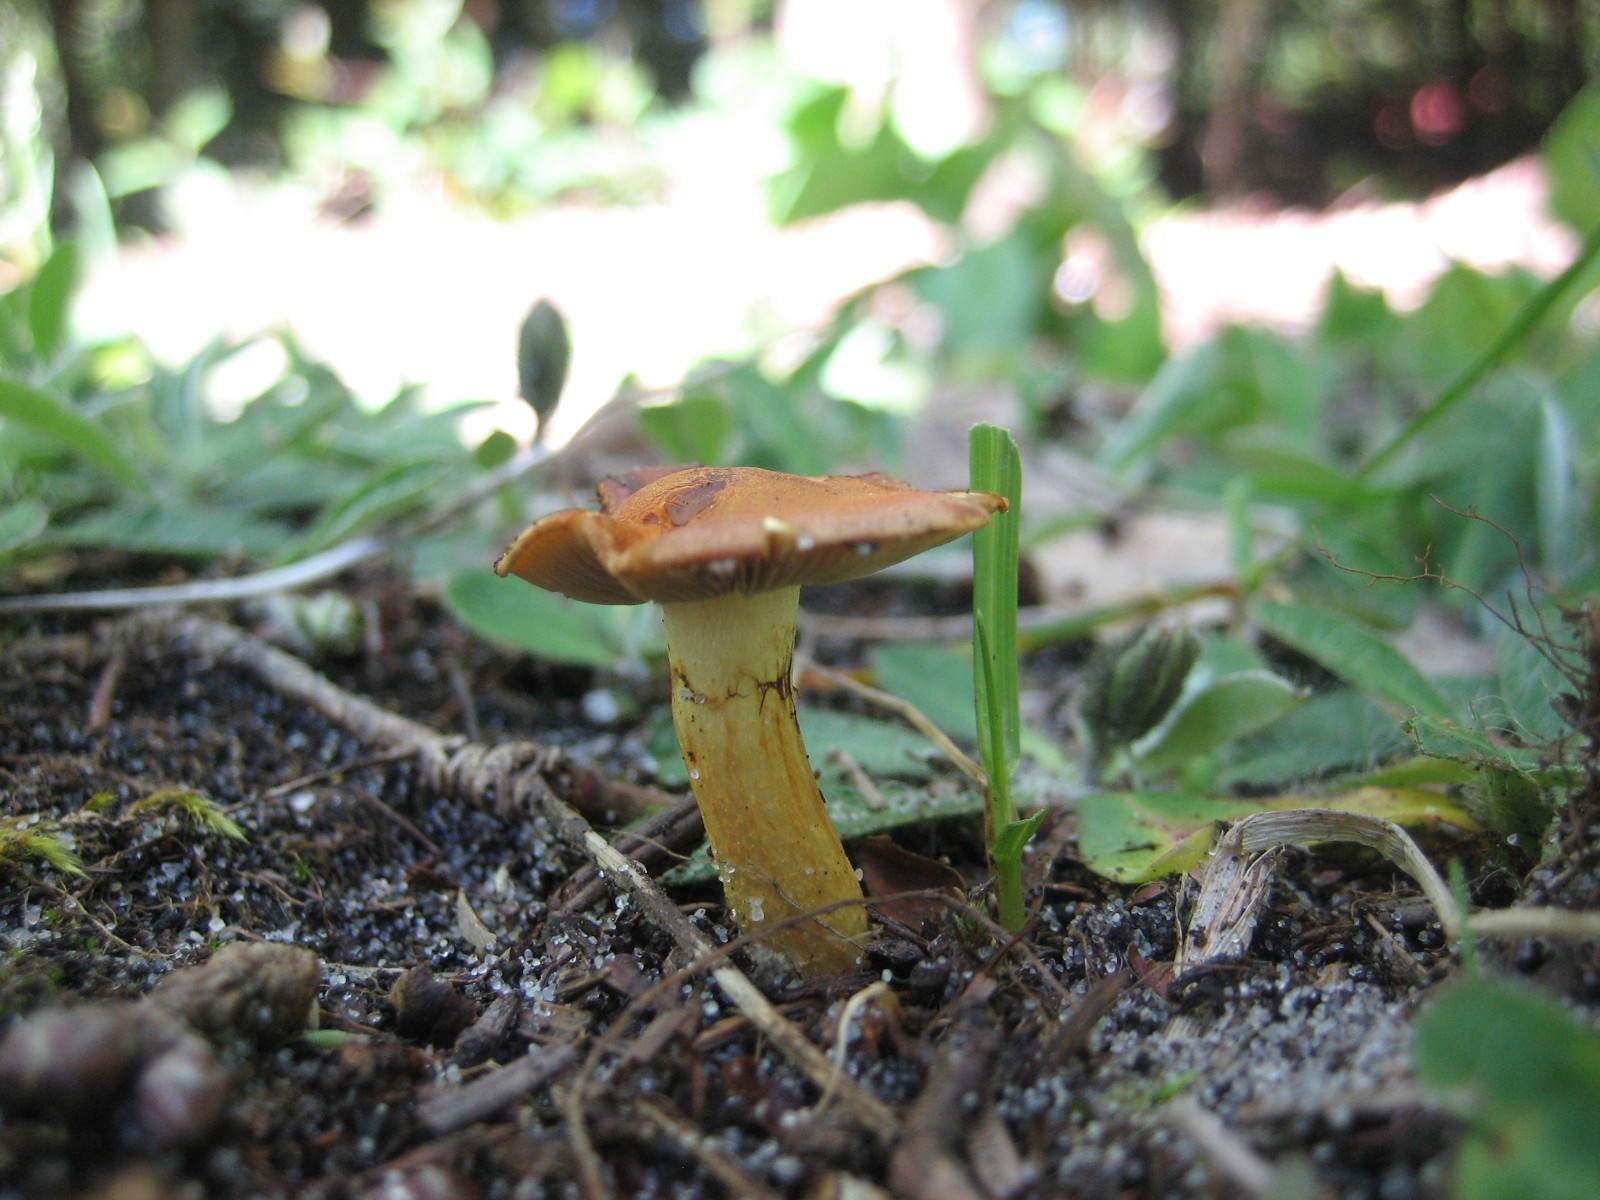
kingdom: Fungi
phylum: Basidiomycota
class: Agaricomycetes
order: Agaricales
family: Strophariaceae
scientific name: Strophariaceae
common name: bredbladfamilien
